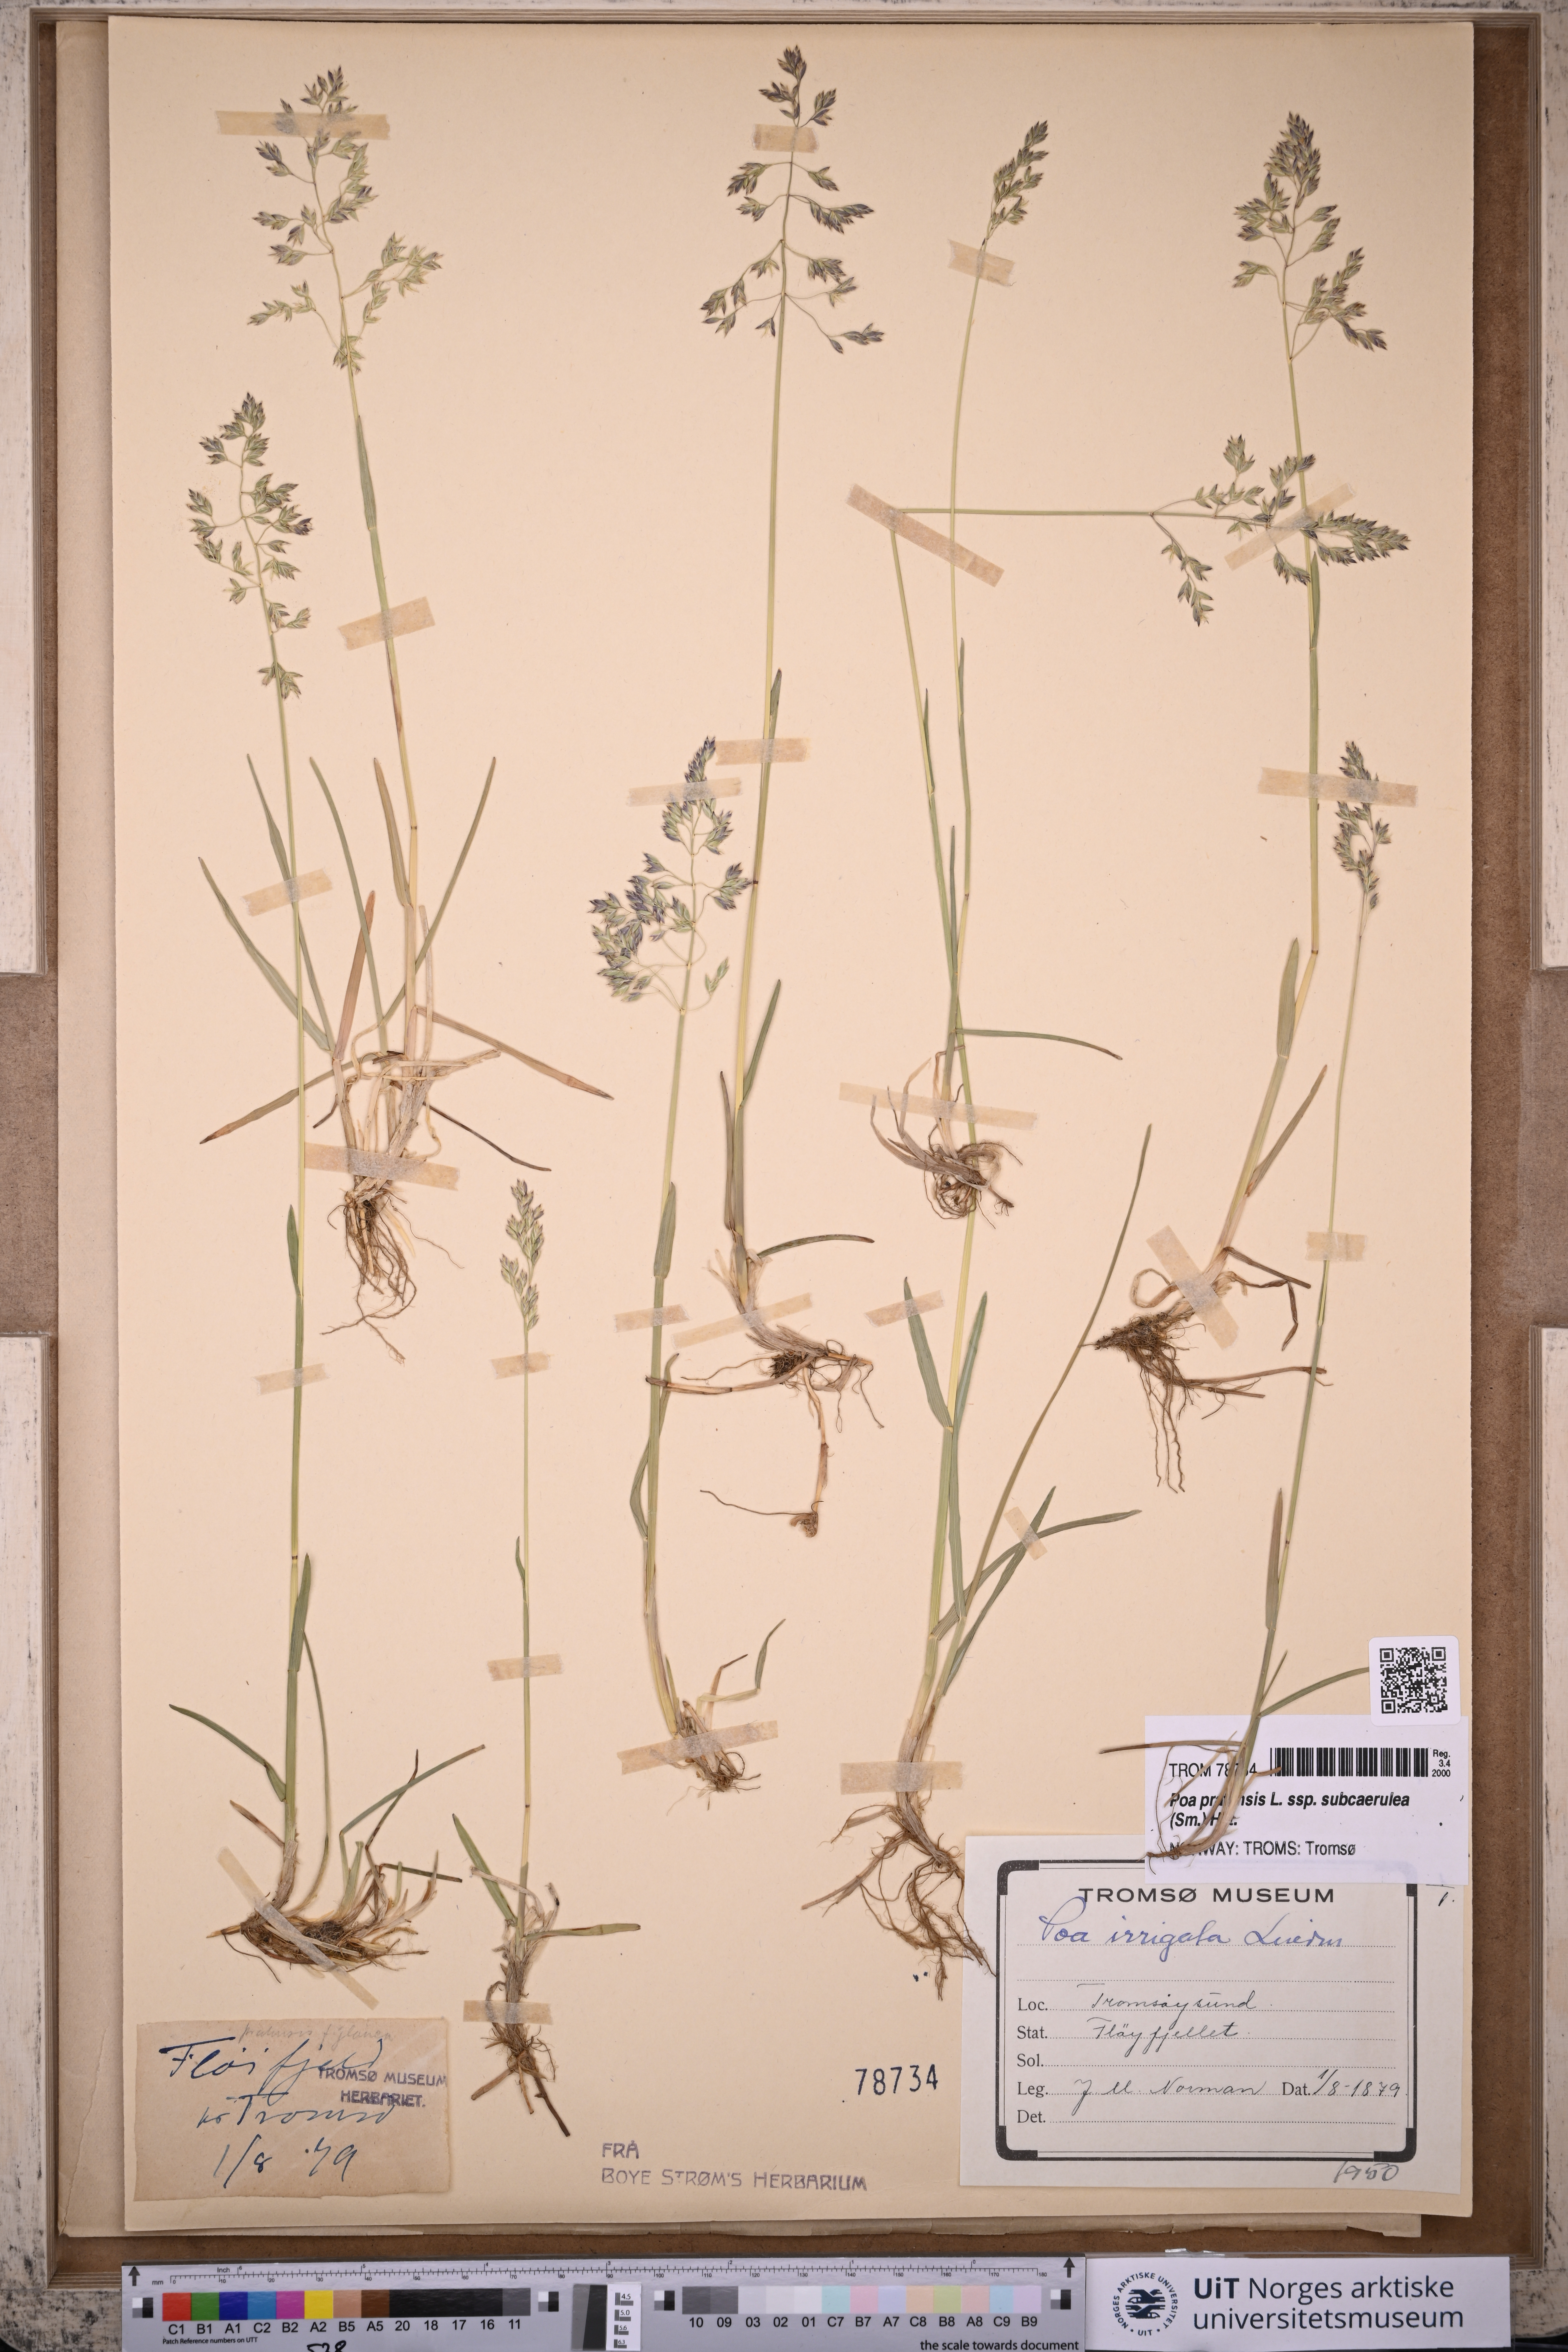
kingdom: Plantae
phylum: Tracheophyta
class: Liliopsida
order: Poales
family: Poaceae
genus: Poa
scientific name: Poa humilis
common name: Spreading meadow-grass
